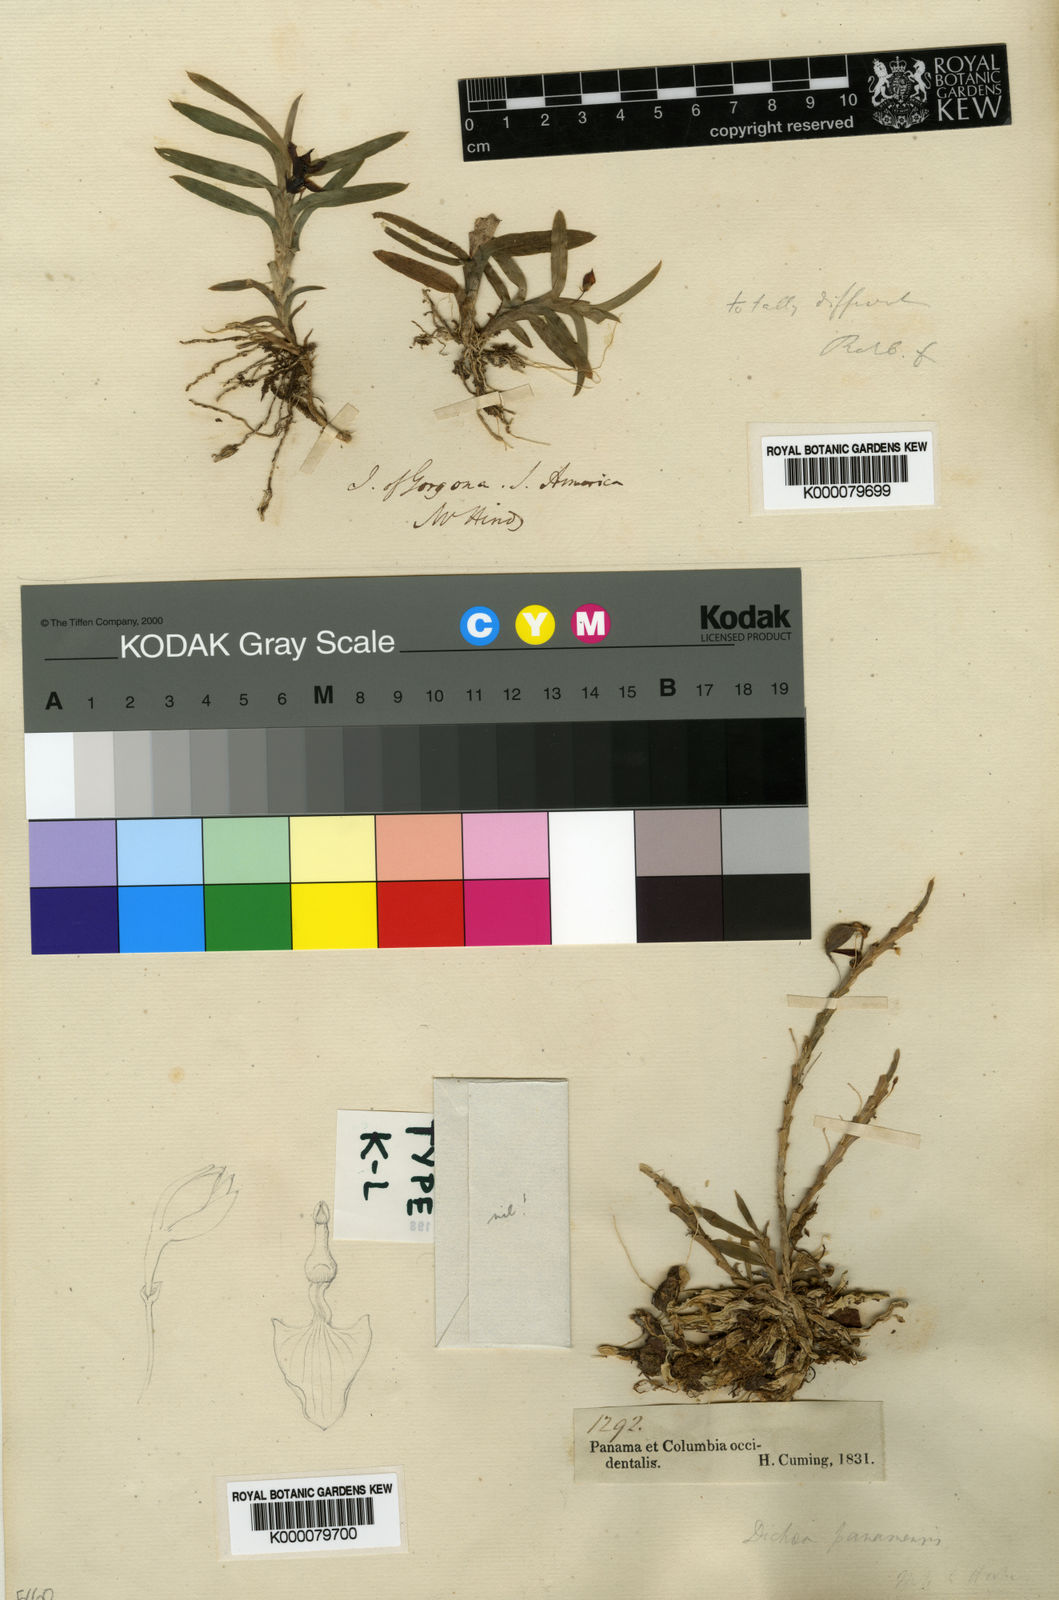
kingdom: Plantae
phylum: Tracheophyta
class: Liliopsida
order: Asparagales
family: Orchidaceae
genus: Dichaea
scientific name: Dichaea panamensis
